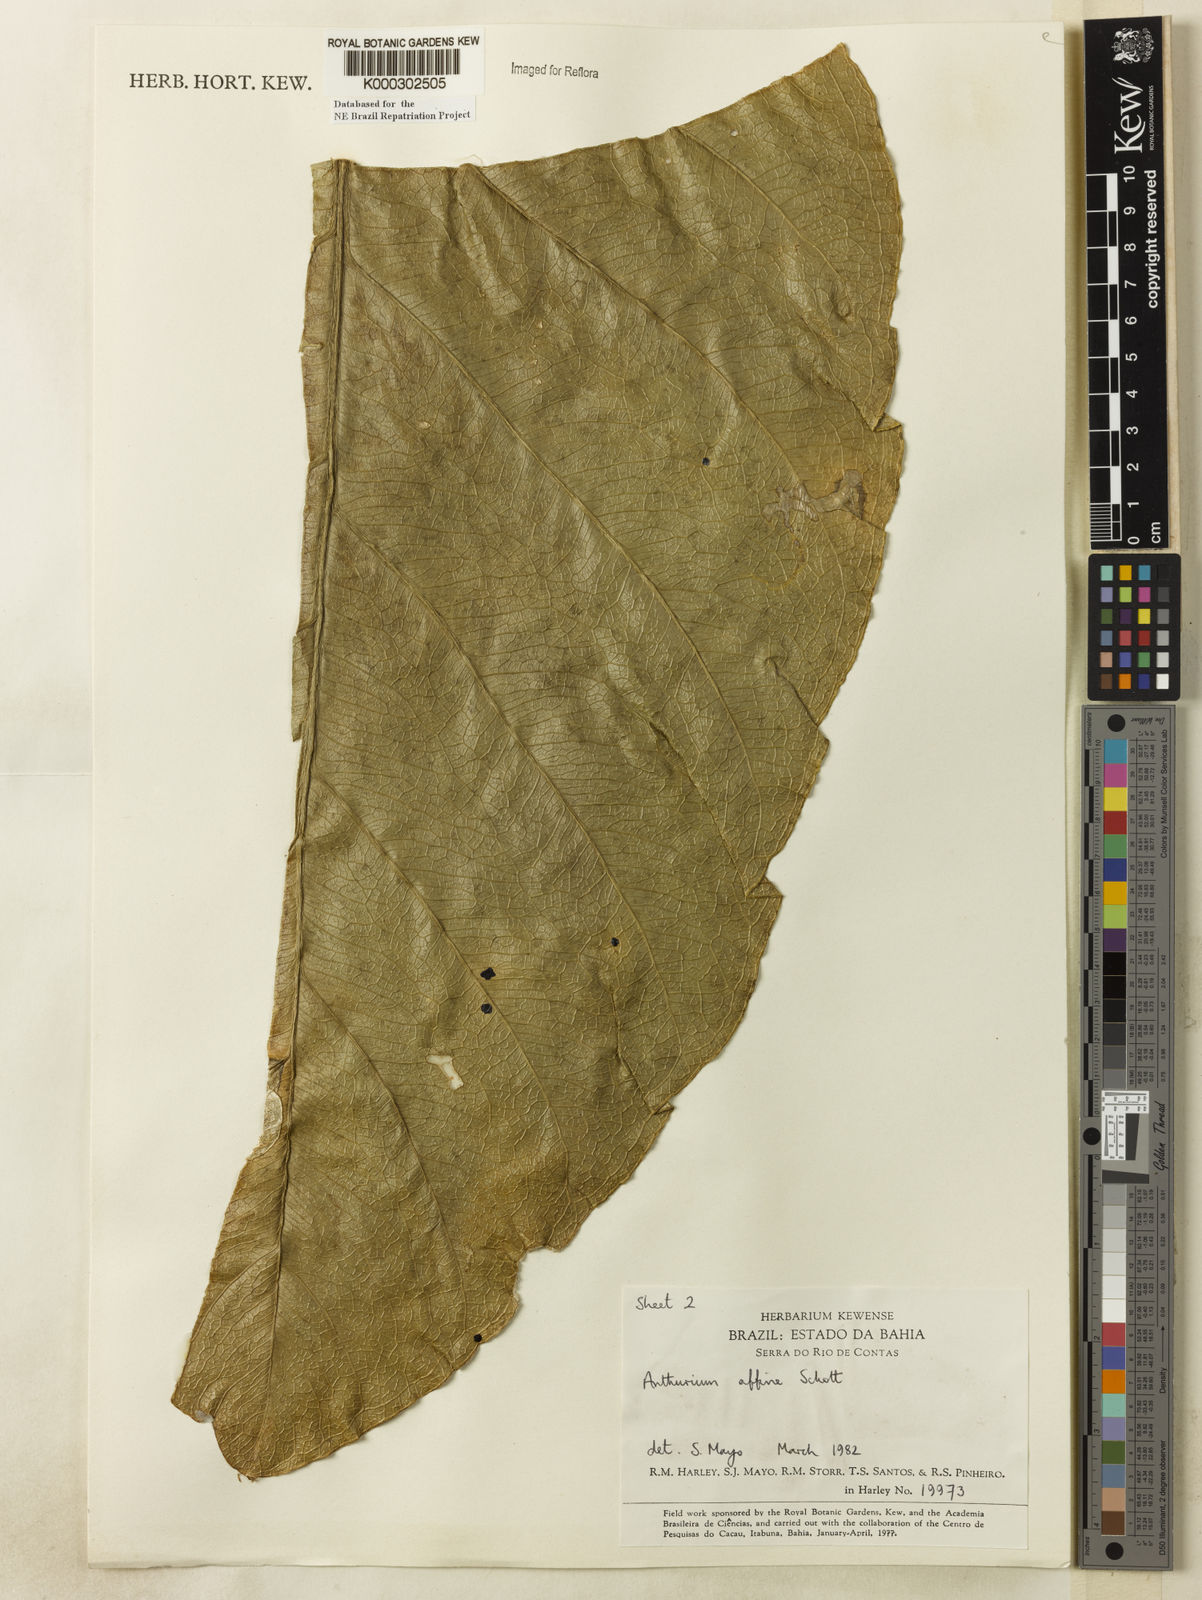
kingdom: Plantae
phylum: Tracheophyta
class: Liliopsida
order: Alismatales
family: Araceae
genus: Anthurium
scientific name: Anthurium affine
